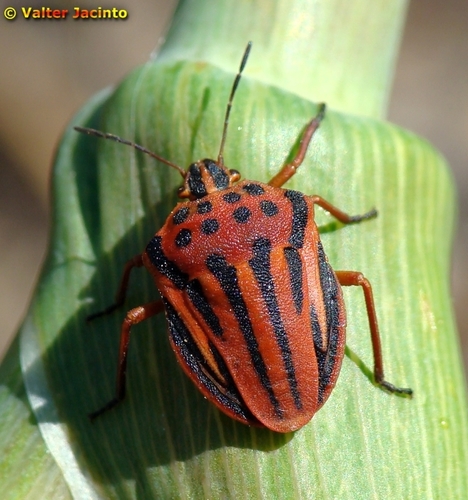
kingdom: Animalia
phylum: Arthropoda
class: Insecta
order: Hemiptera
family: Pentatomidae
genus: Graphosoma
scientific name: Graphosoma semipunctatum
